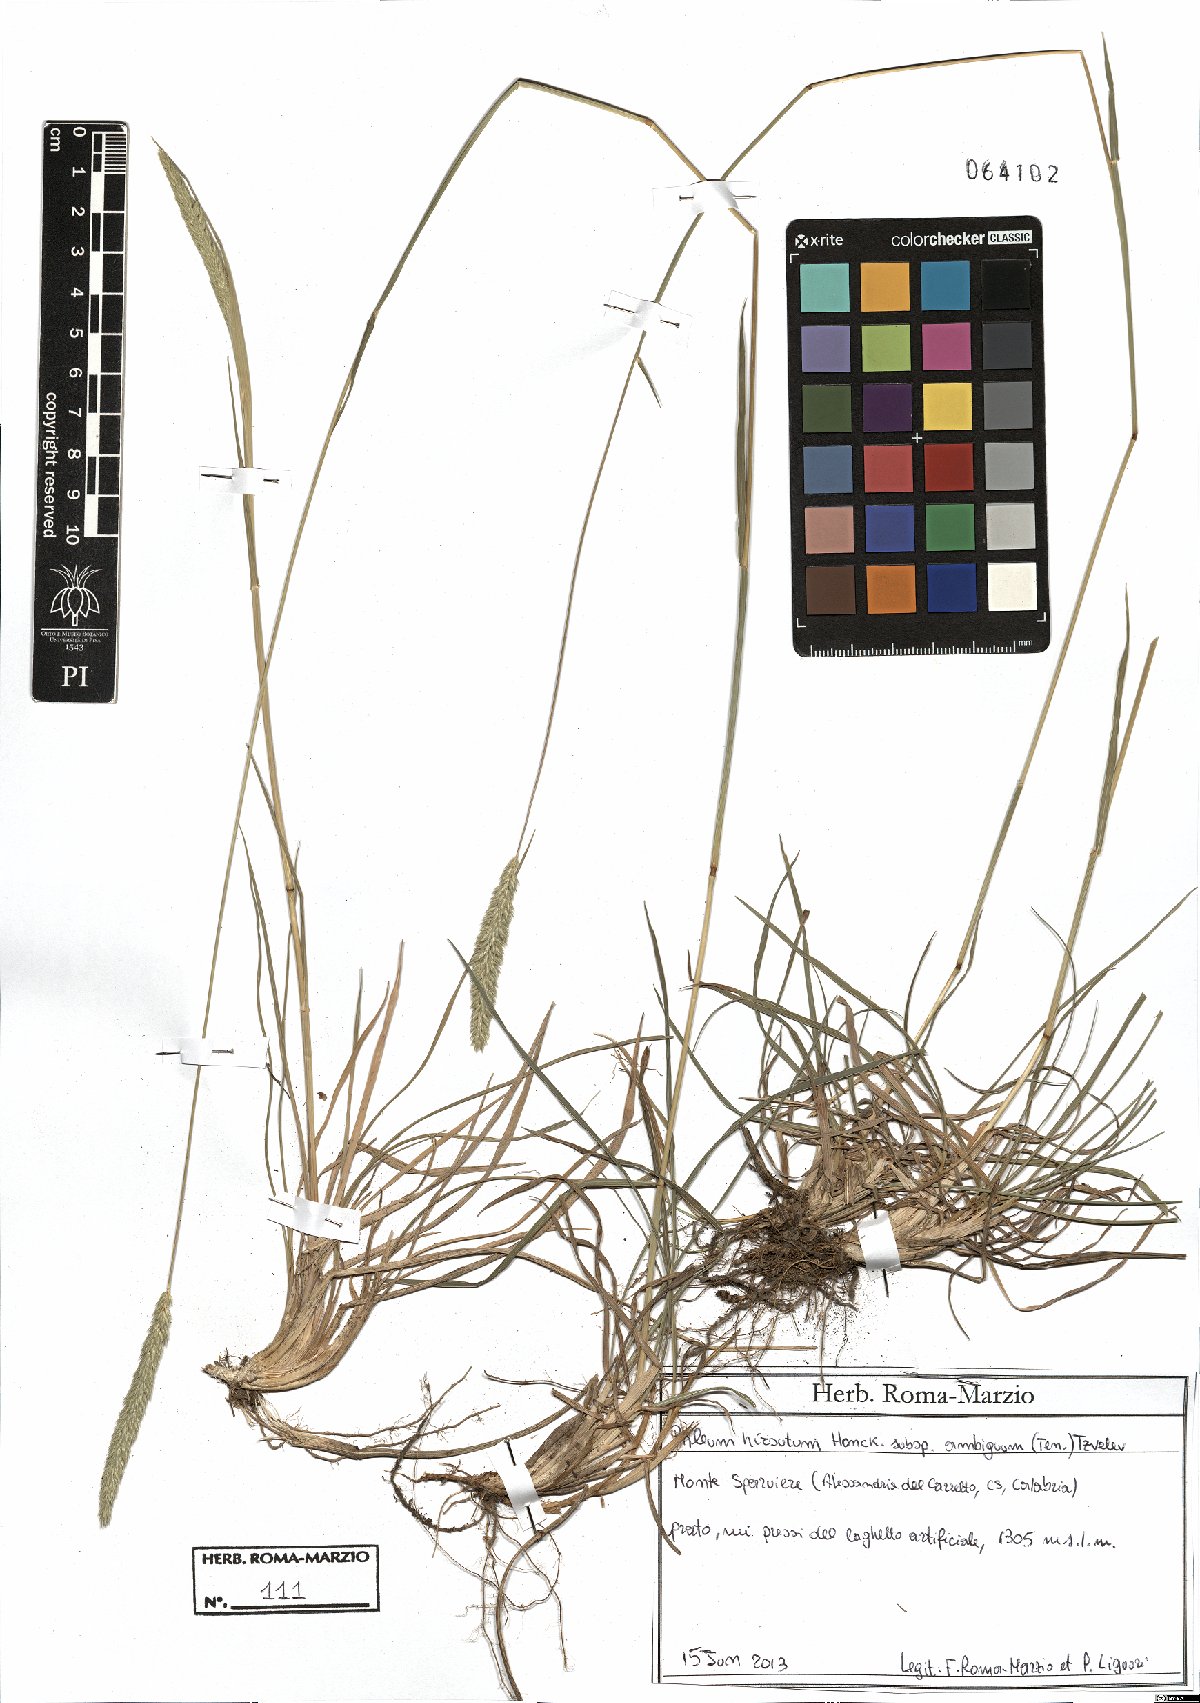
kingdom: Plantae
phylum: Tracheophyta
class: Liliopsida
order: Poales
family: Poaceae
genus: Phleum
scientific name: Phleum hirsutum
